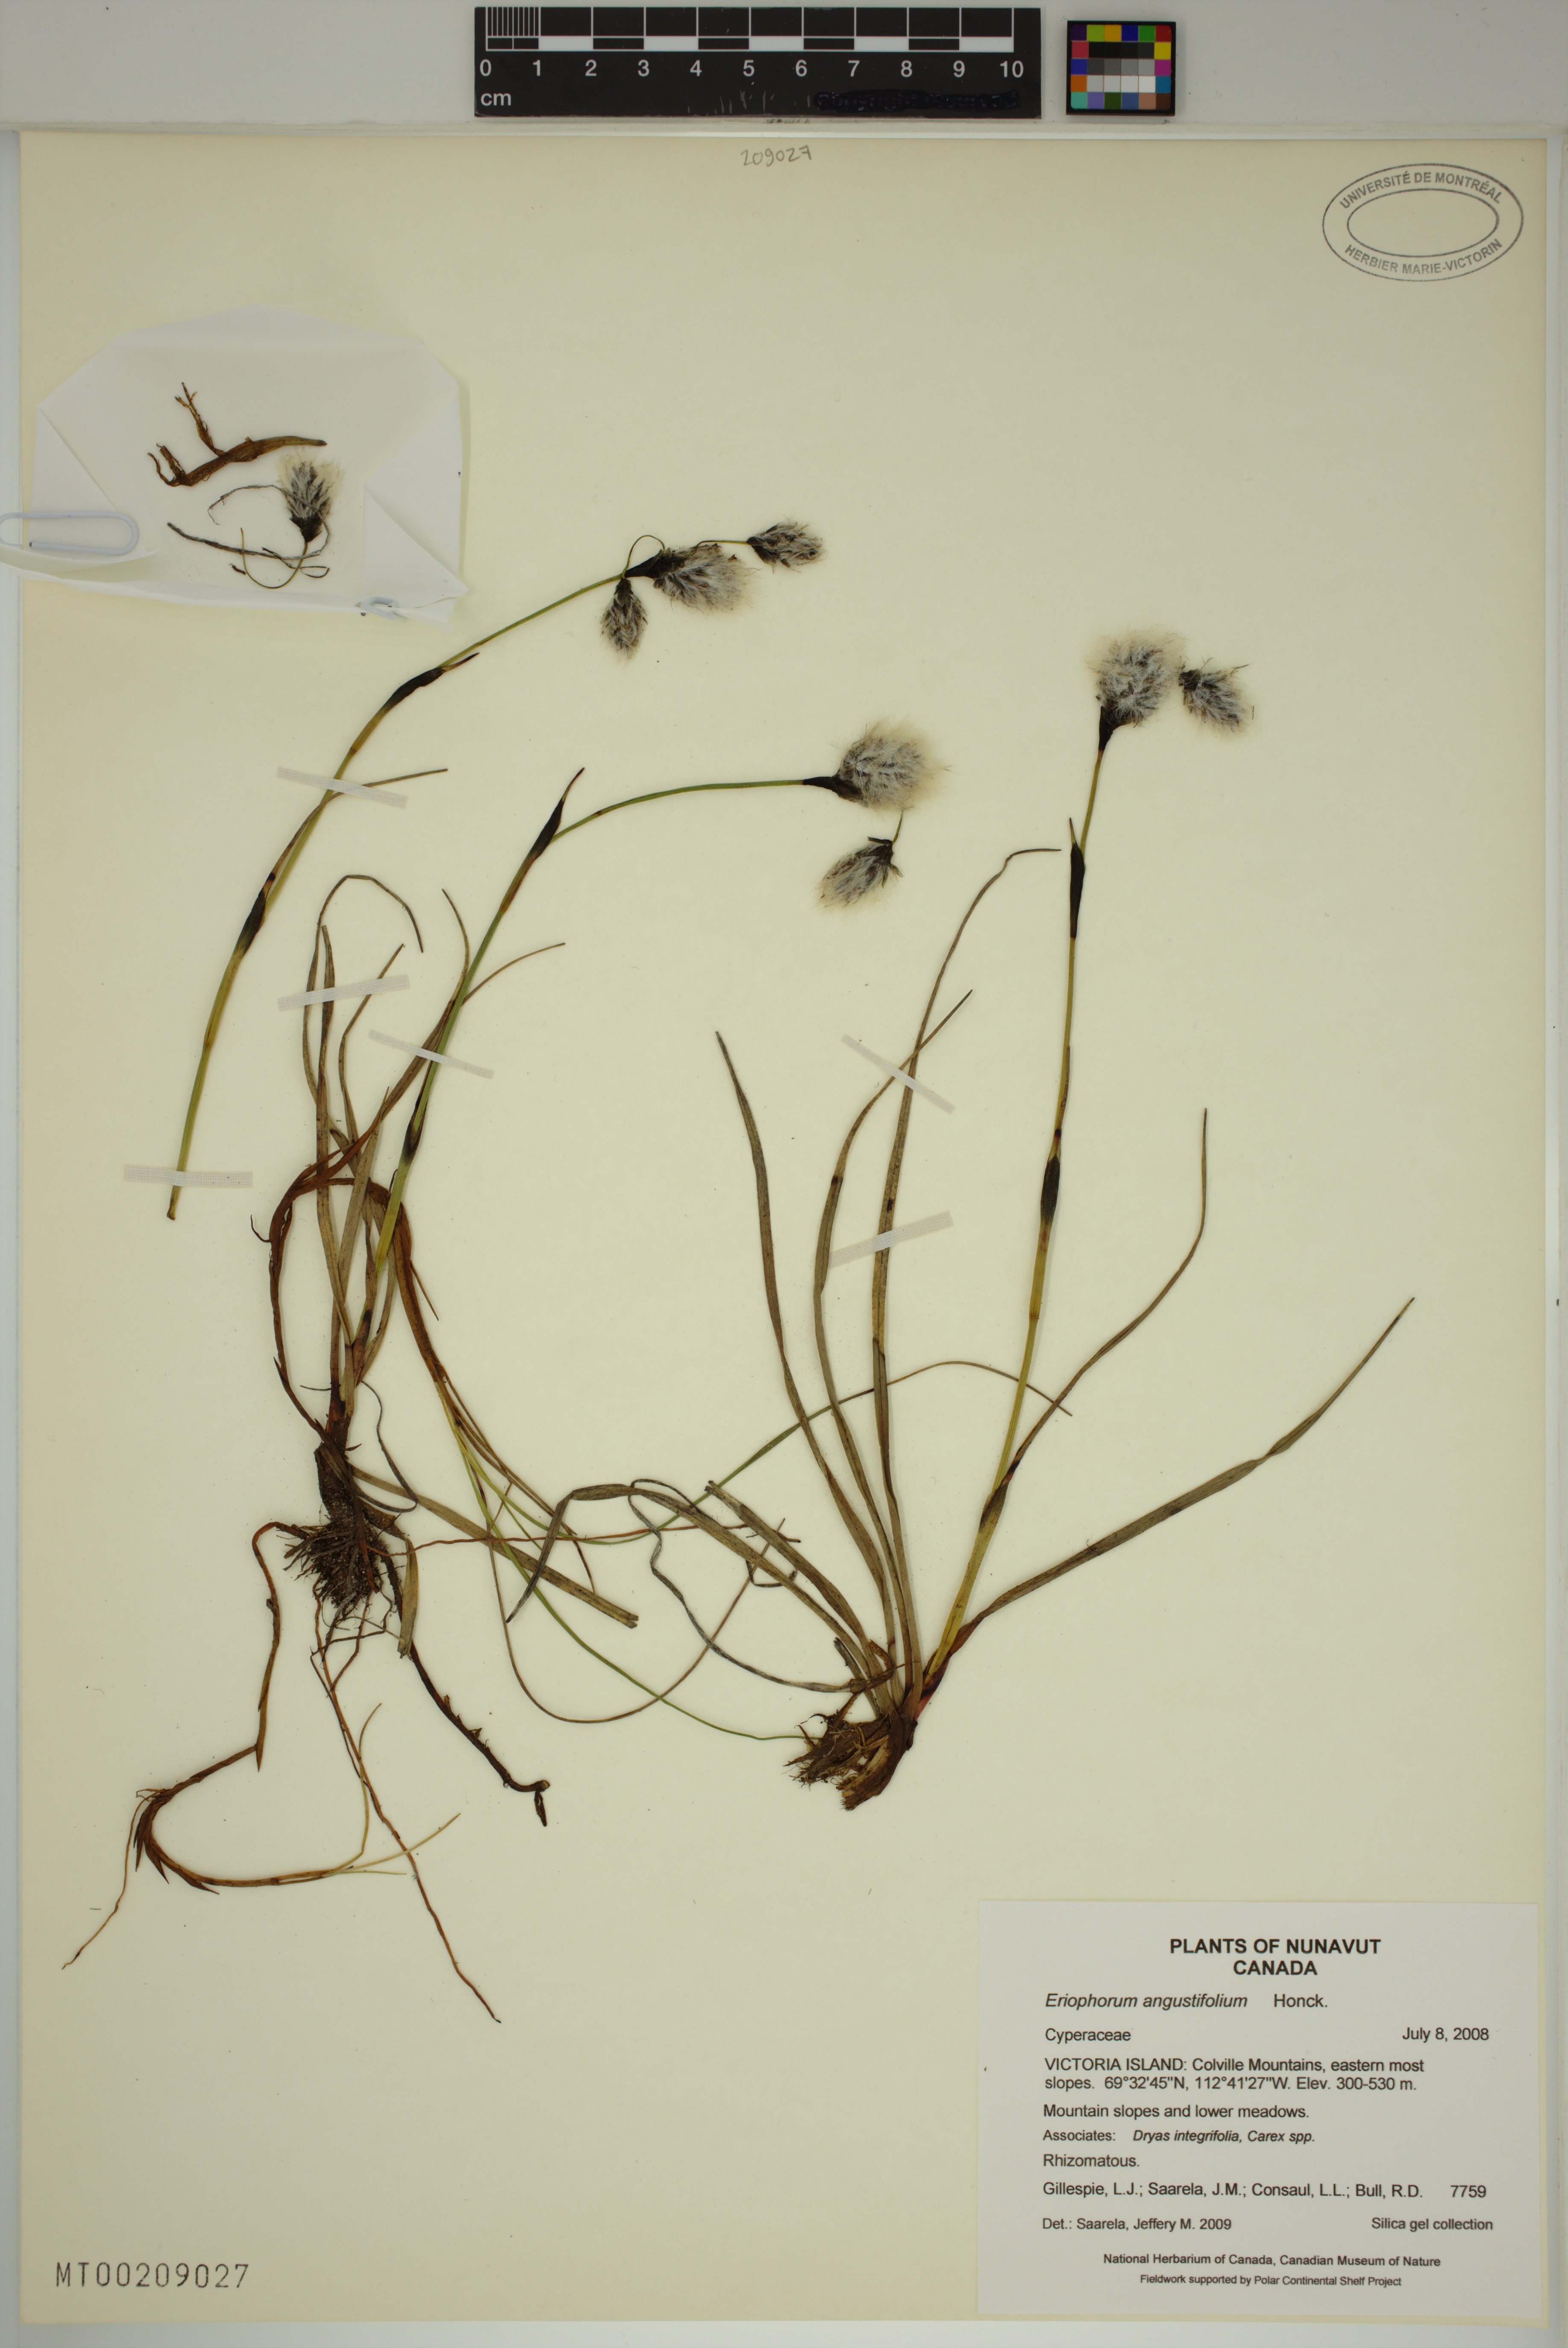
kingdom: Plantae
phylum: Tracheophyta
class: Liliopsida
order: Poales
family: Cyperaceae
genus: Eriophorum
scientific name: Eriophorum angustifolium
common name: Common cottongrass
